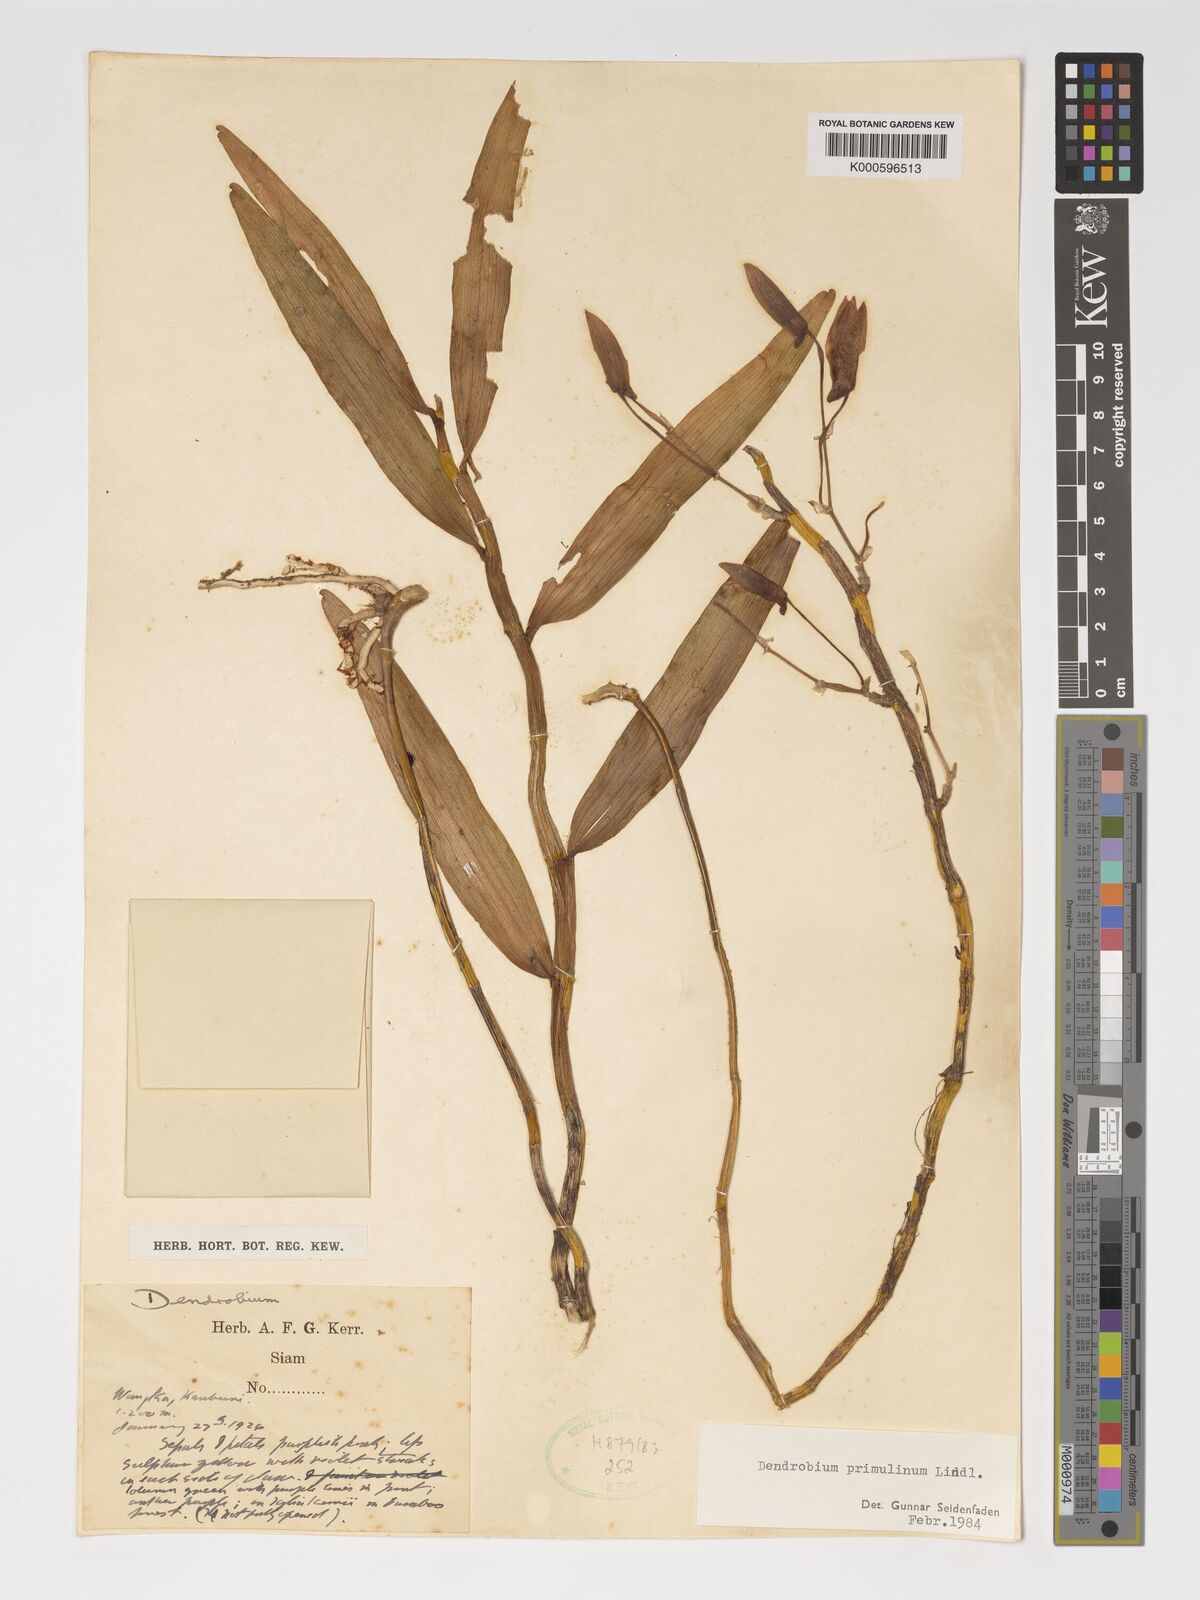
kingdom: Plantae
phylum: Tracheophyta
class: Liliopsida
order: Asparagales
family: Orchidaceae
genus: Dendrobium
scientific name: Dendrobium polyanthum
